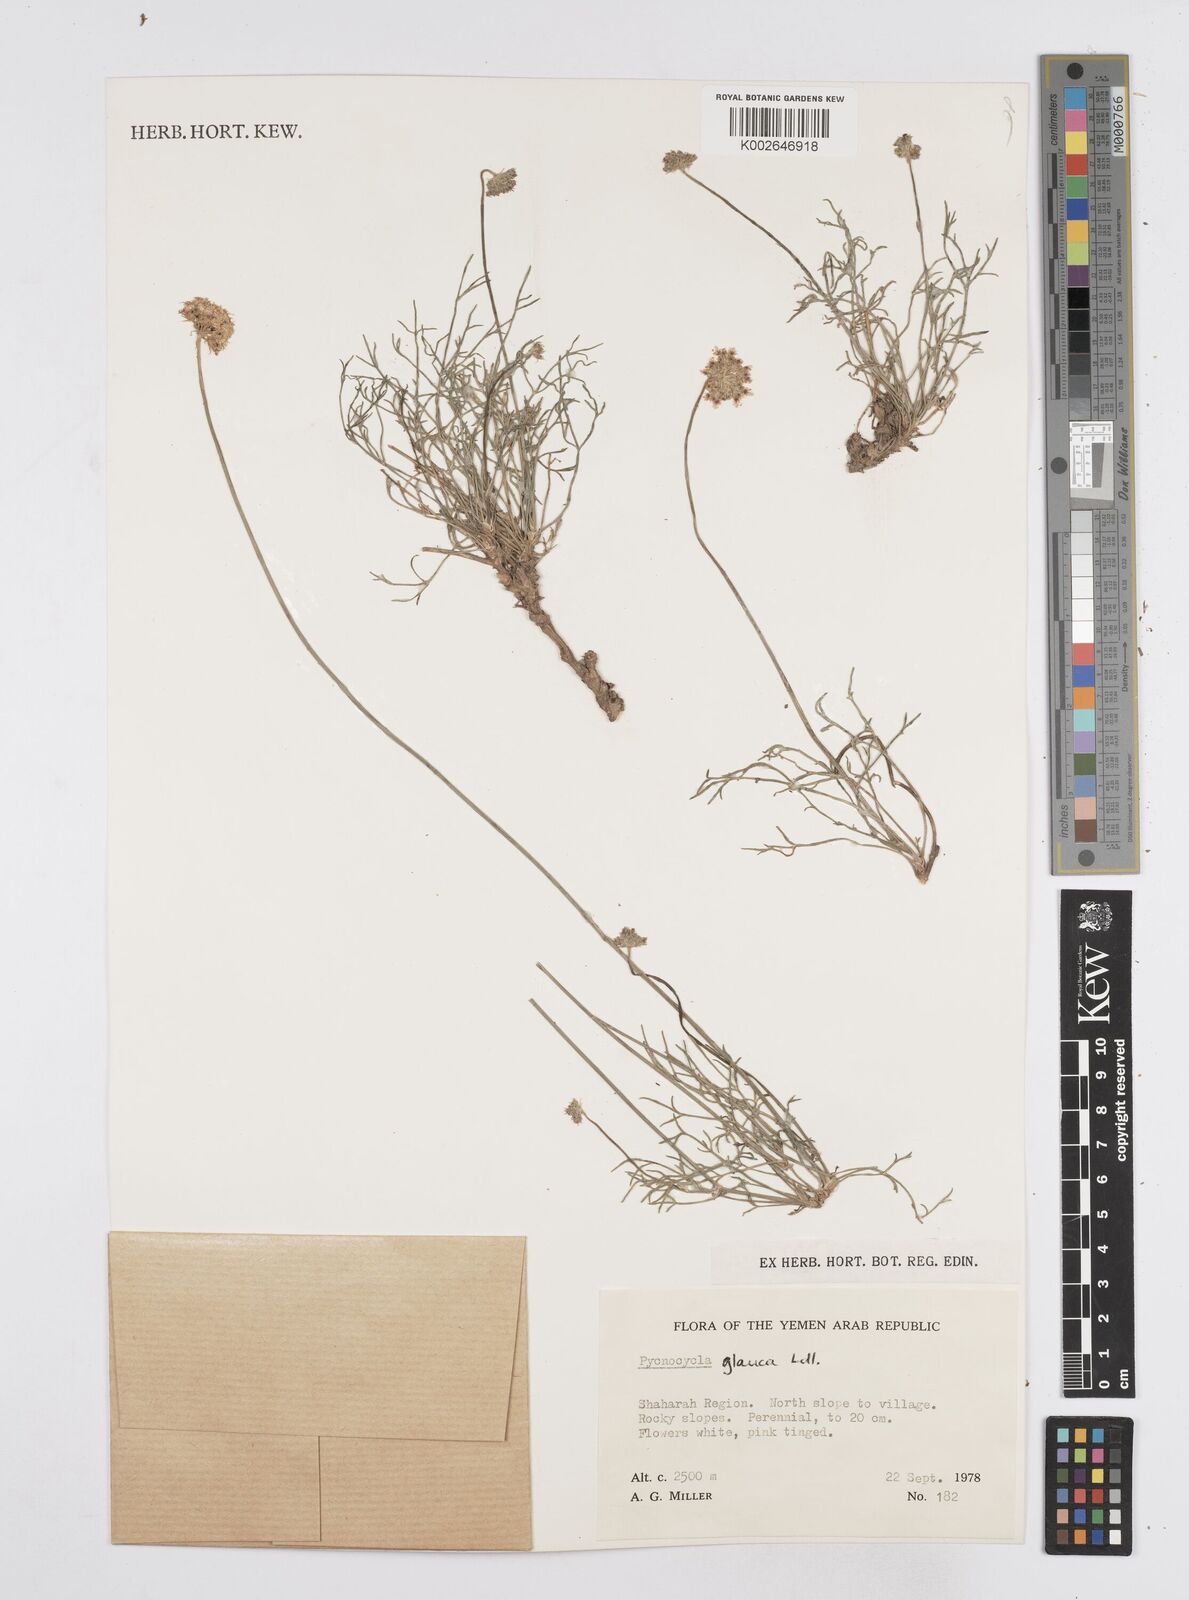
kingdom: Plantae
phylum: Tracheophyta
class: Magnoliopsida
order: Apiales
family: Apiaceae
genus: Pycnocycla
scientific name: Pycnocycla glauca
